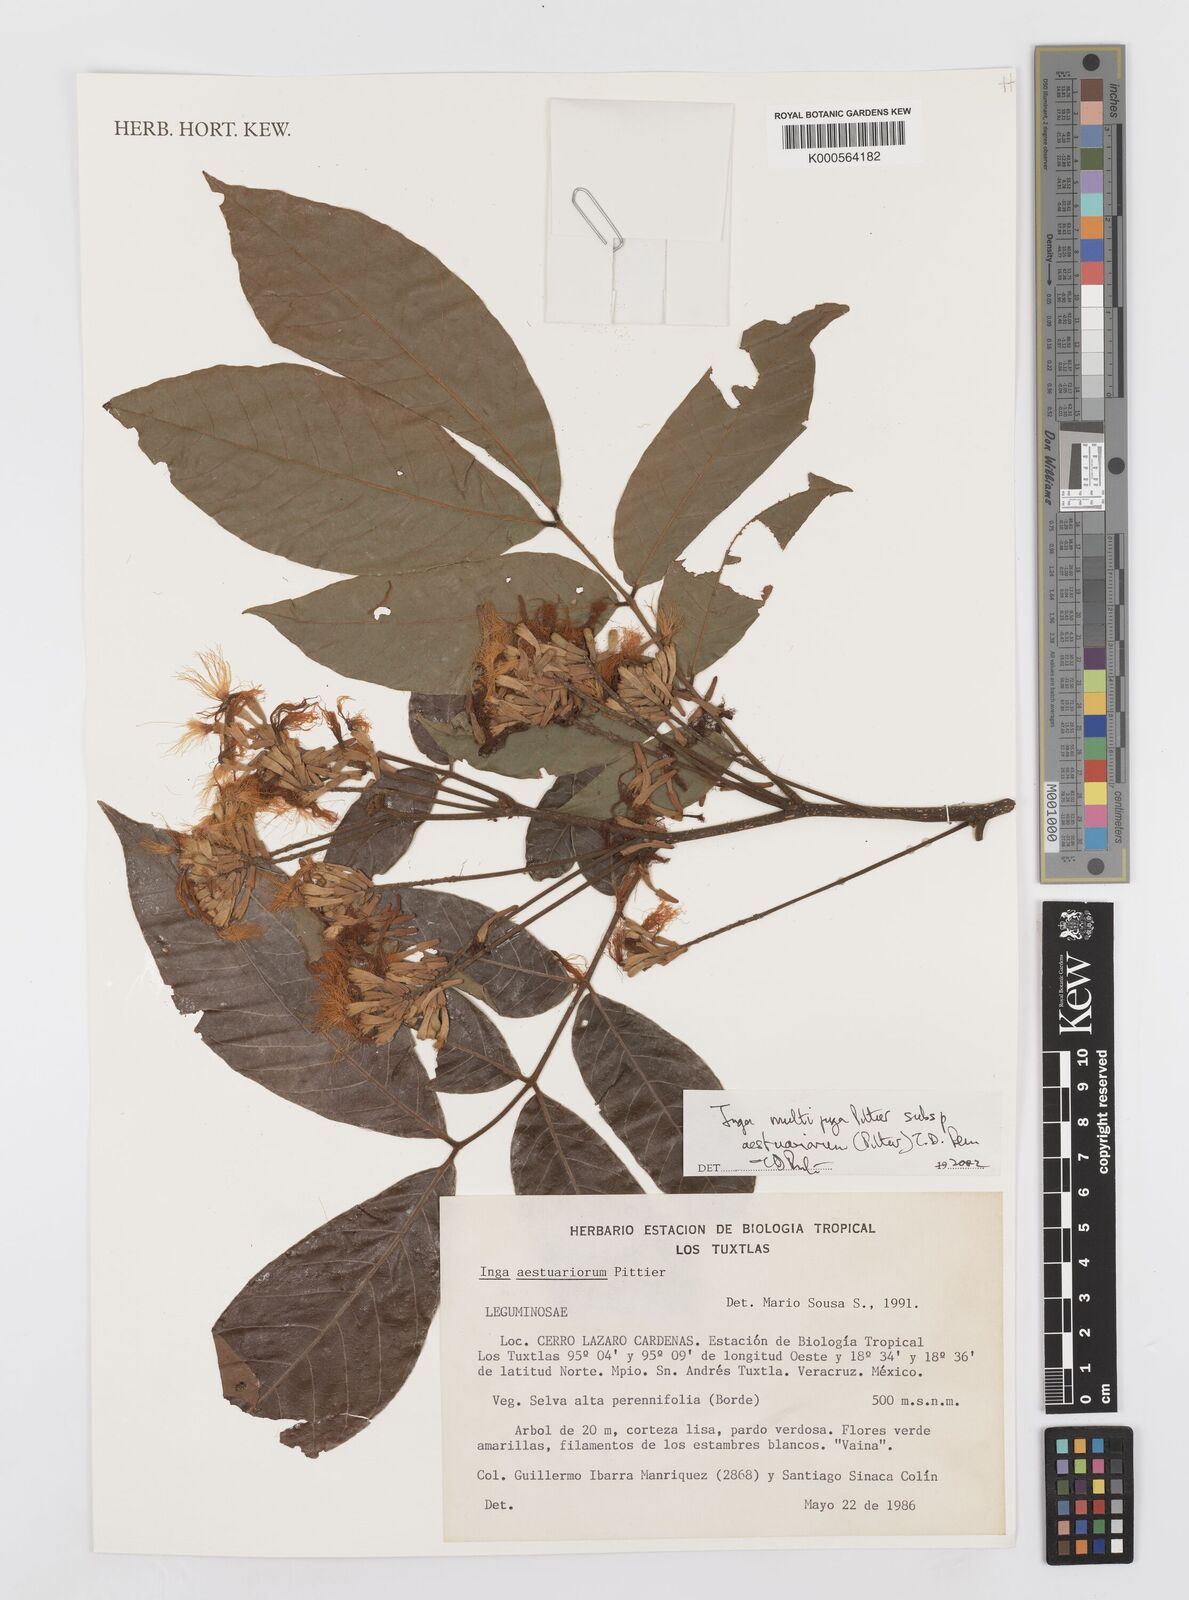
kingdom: Plantae
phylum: Tracheophyta
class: Magnoliopsida
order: Fabales
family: Fabaceae
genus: Inga
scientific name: Inga multijuga
